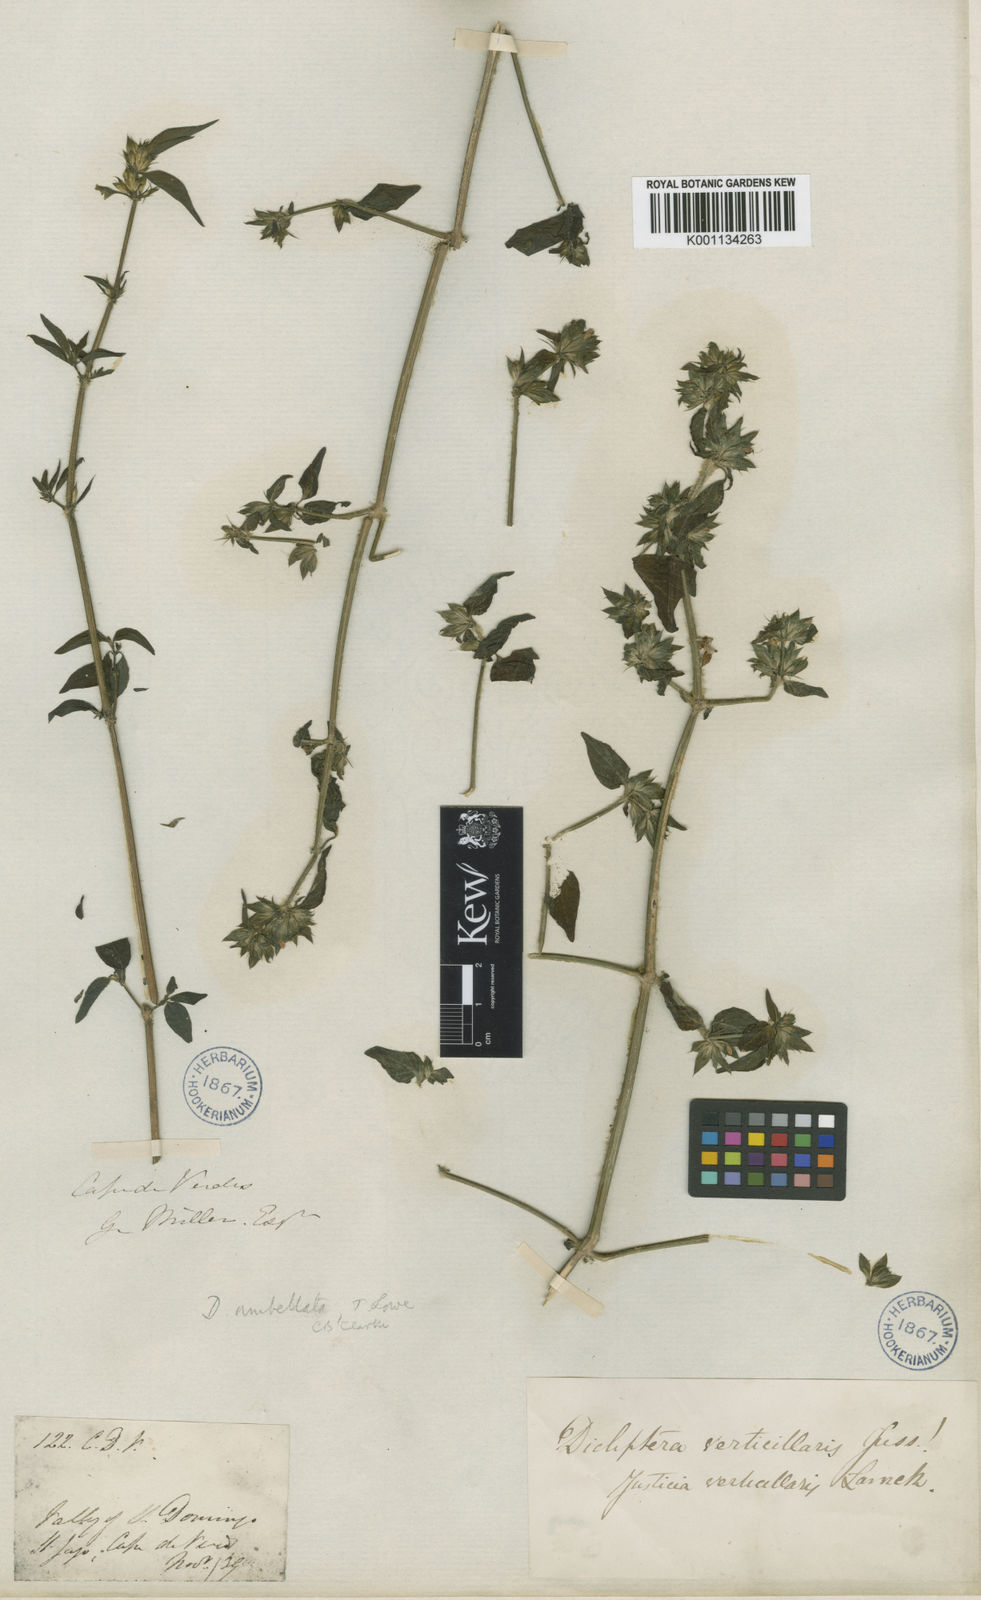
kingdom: Plantae
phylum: Tracheophyta
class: Magnoliopsida
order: Lamiales
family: Acanthaceae
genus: Hypoestes
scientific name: Hypoestes aristata
